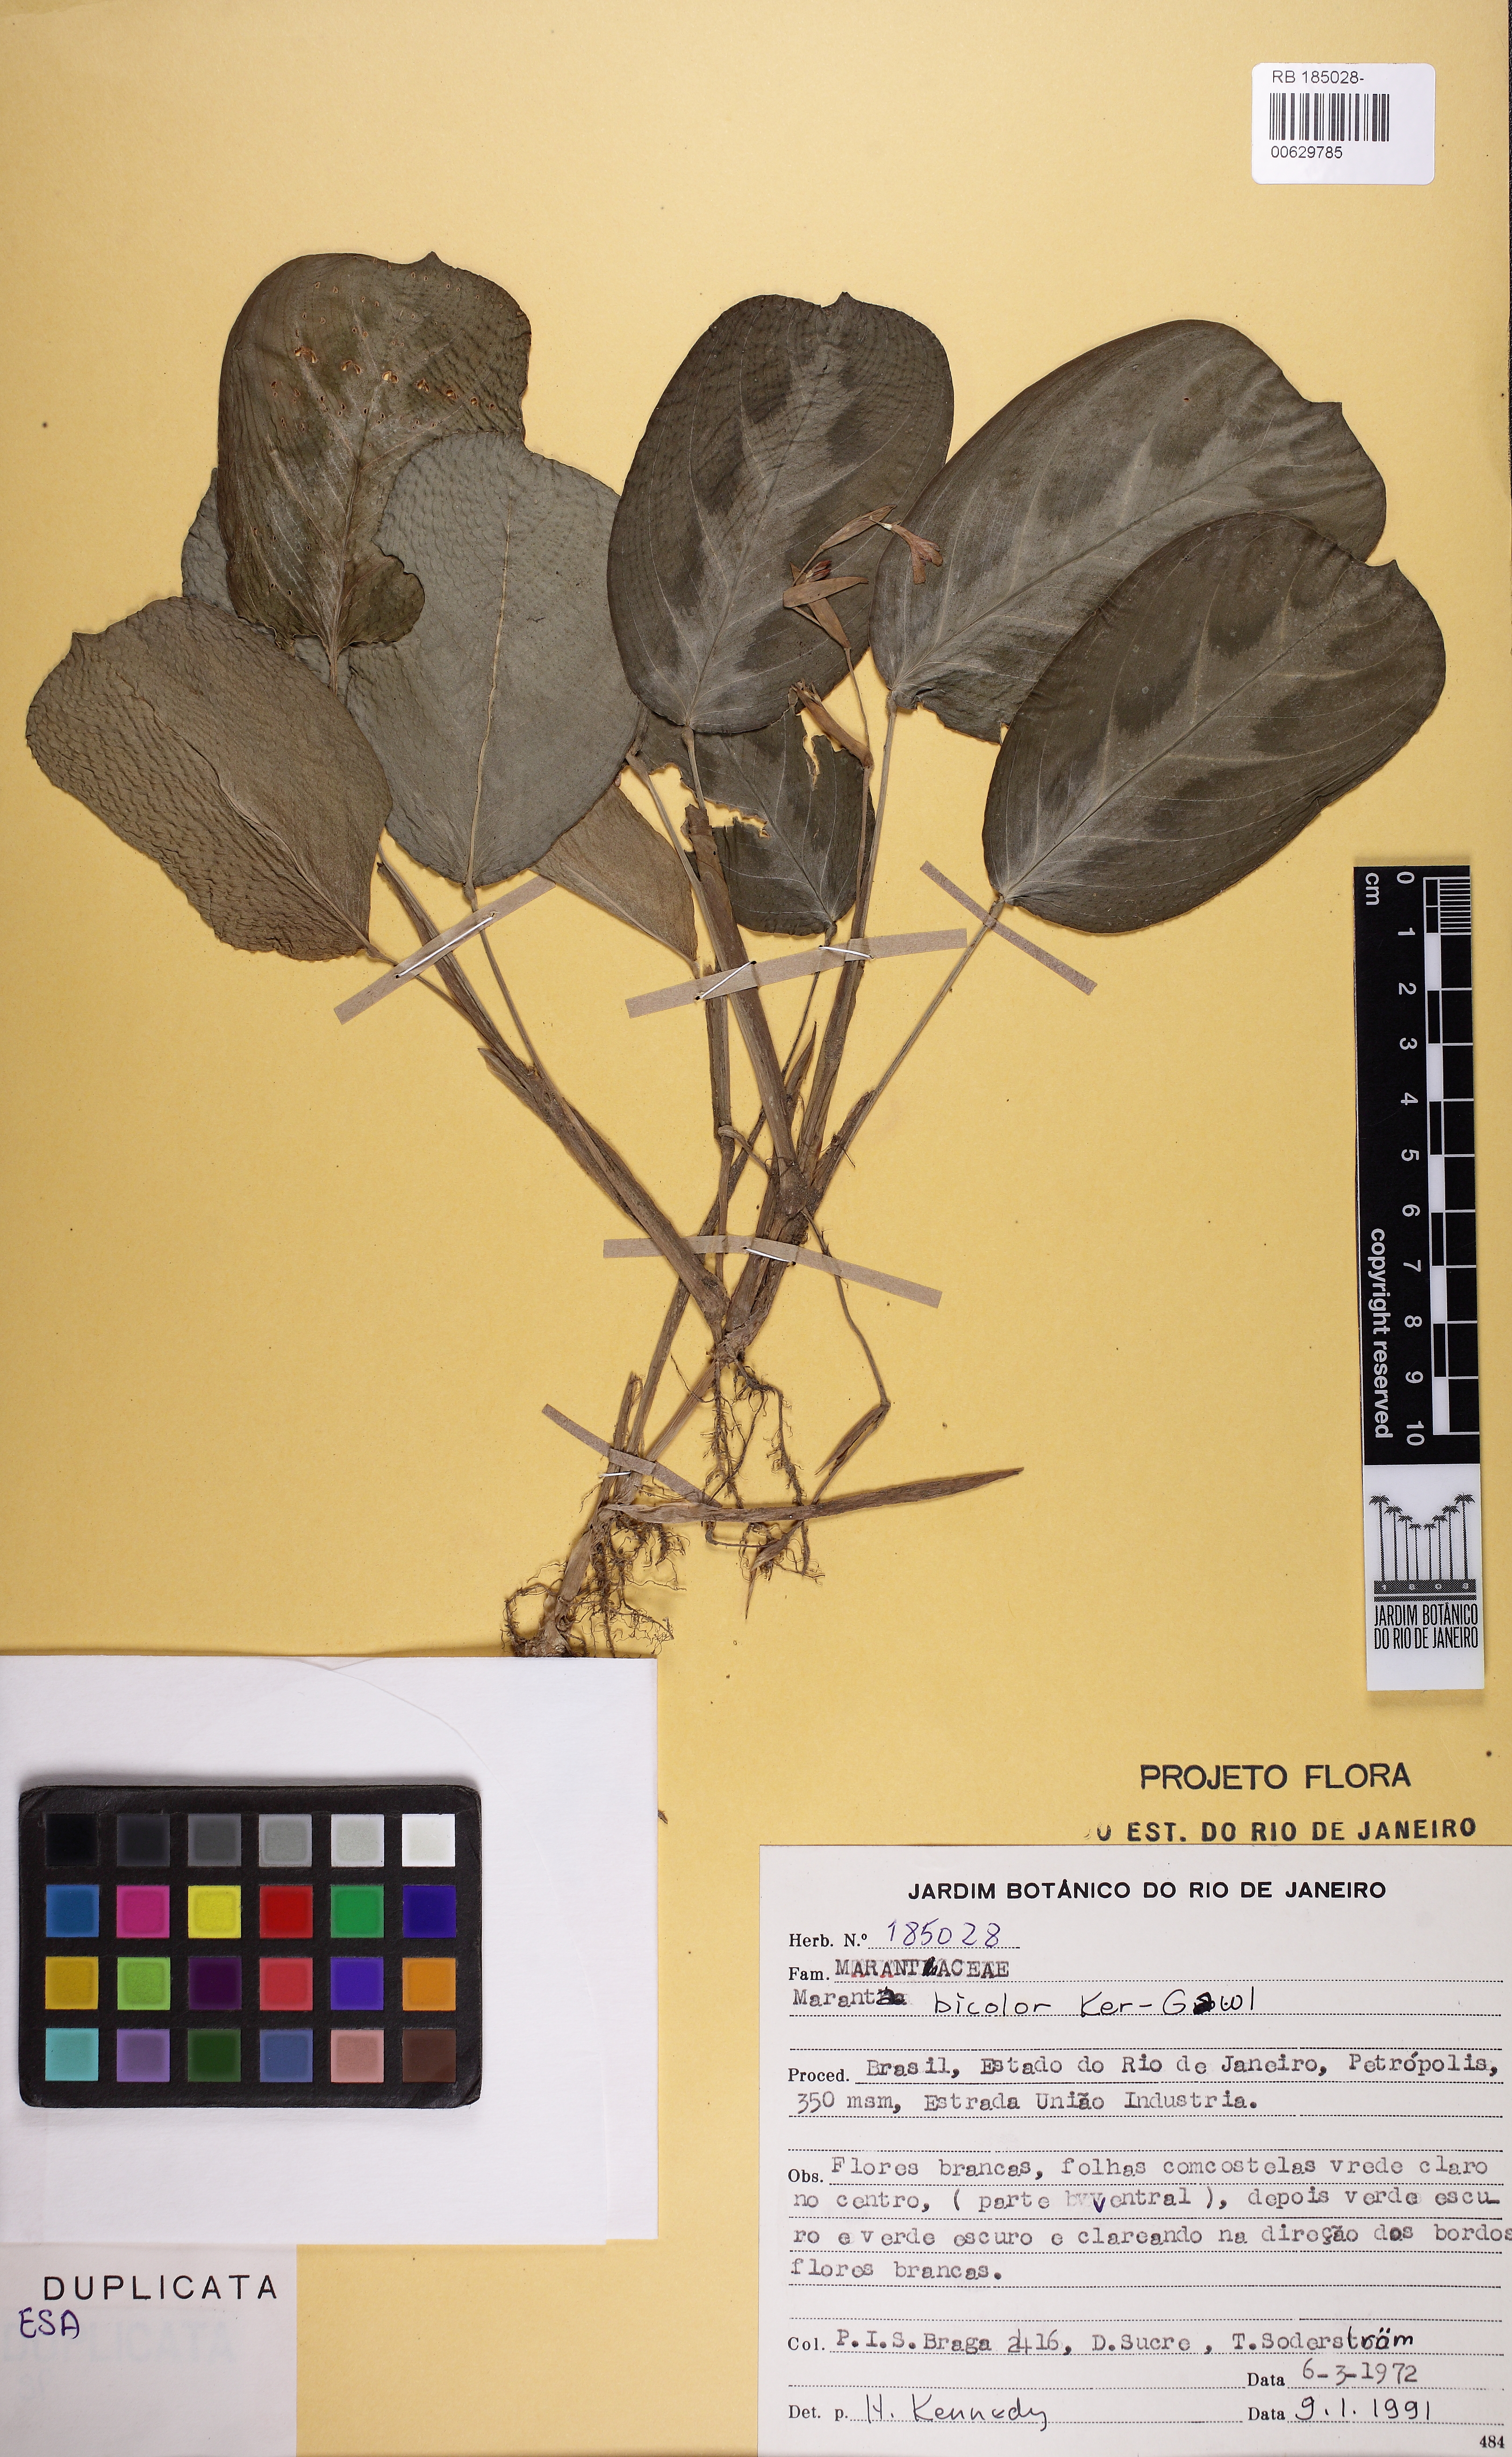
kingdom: Plantae
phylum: Tracheophyta
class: Liliopsida
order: Zingiberales
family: Marantaceae
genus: Maranta
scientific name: Maranta cristata
